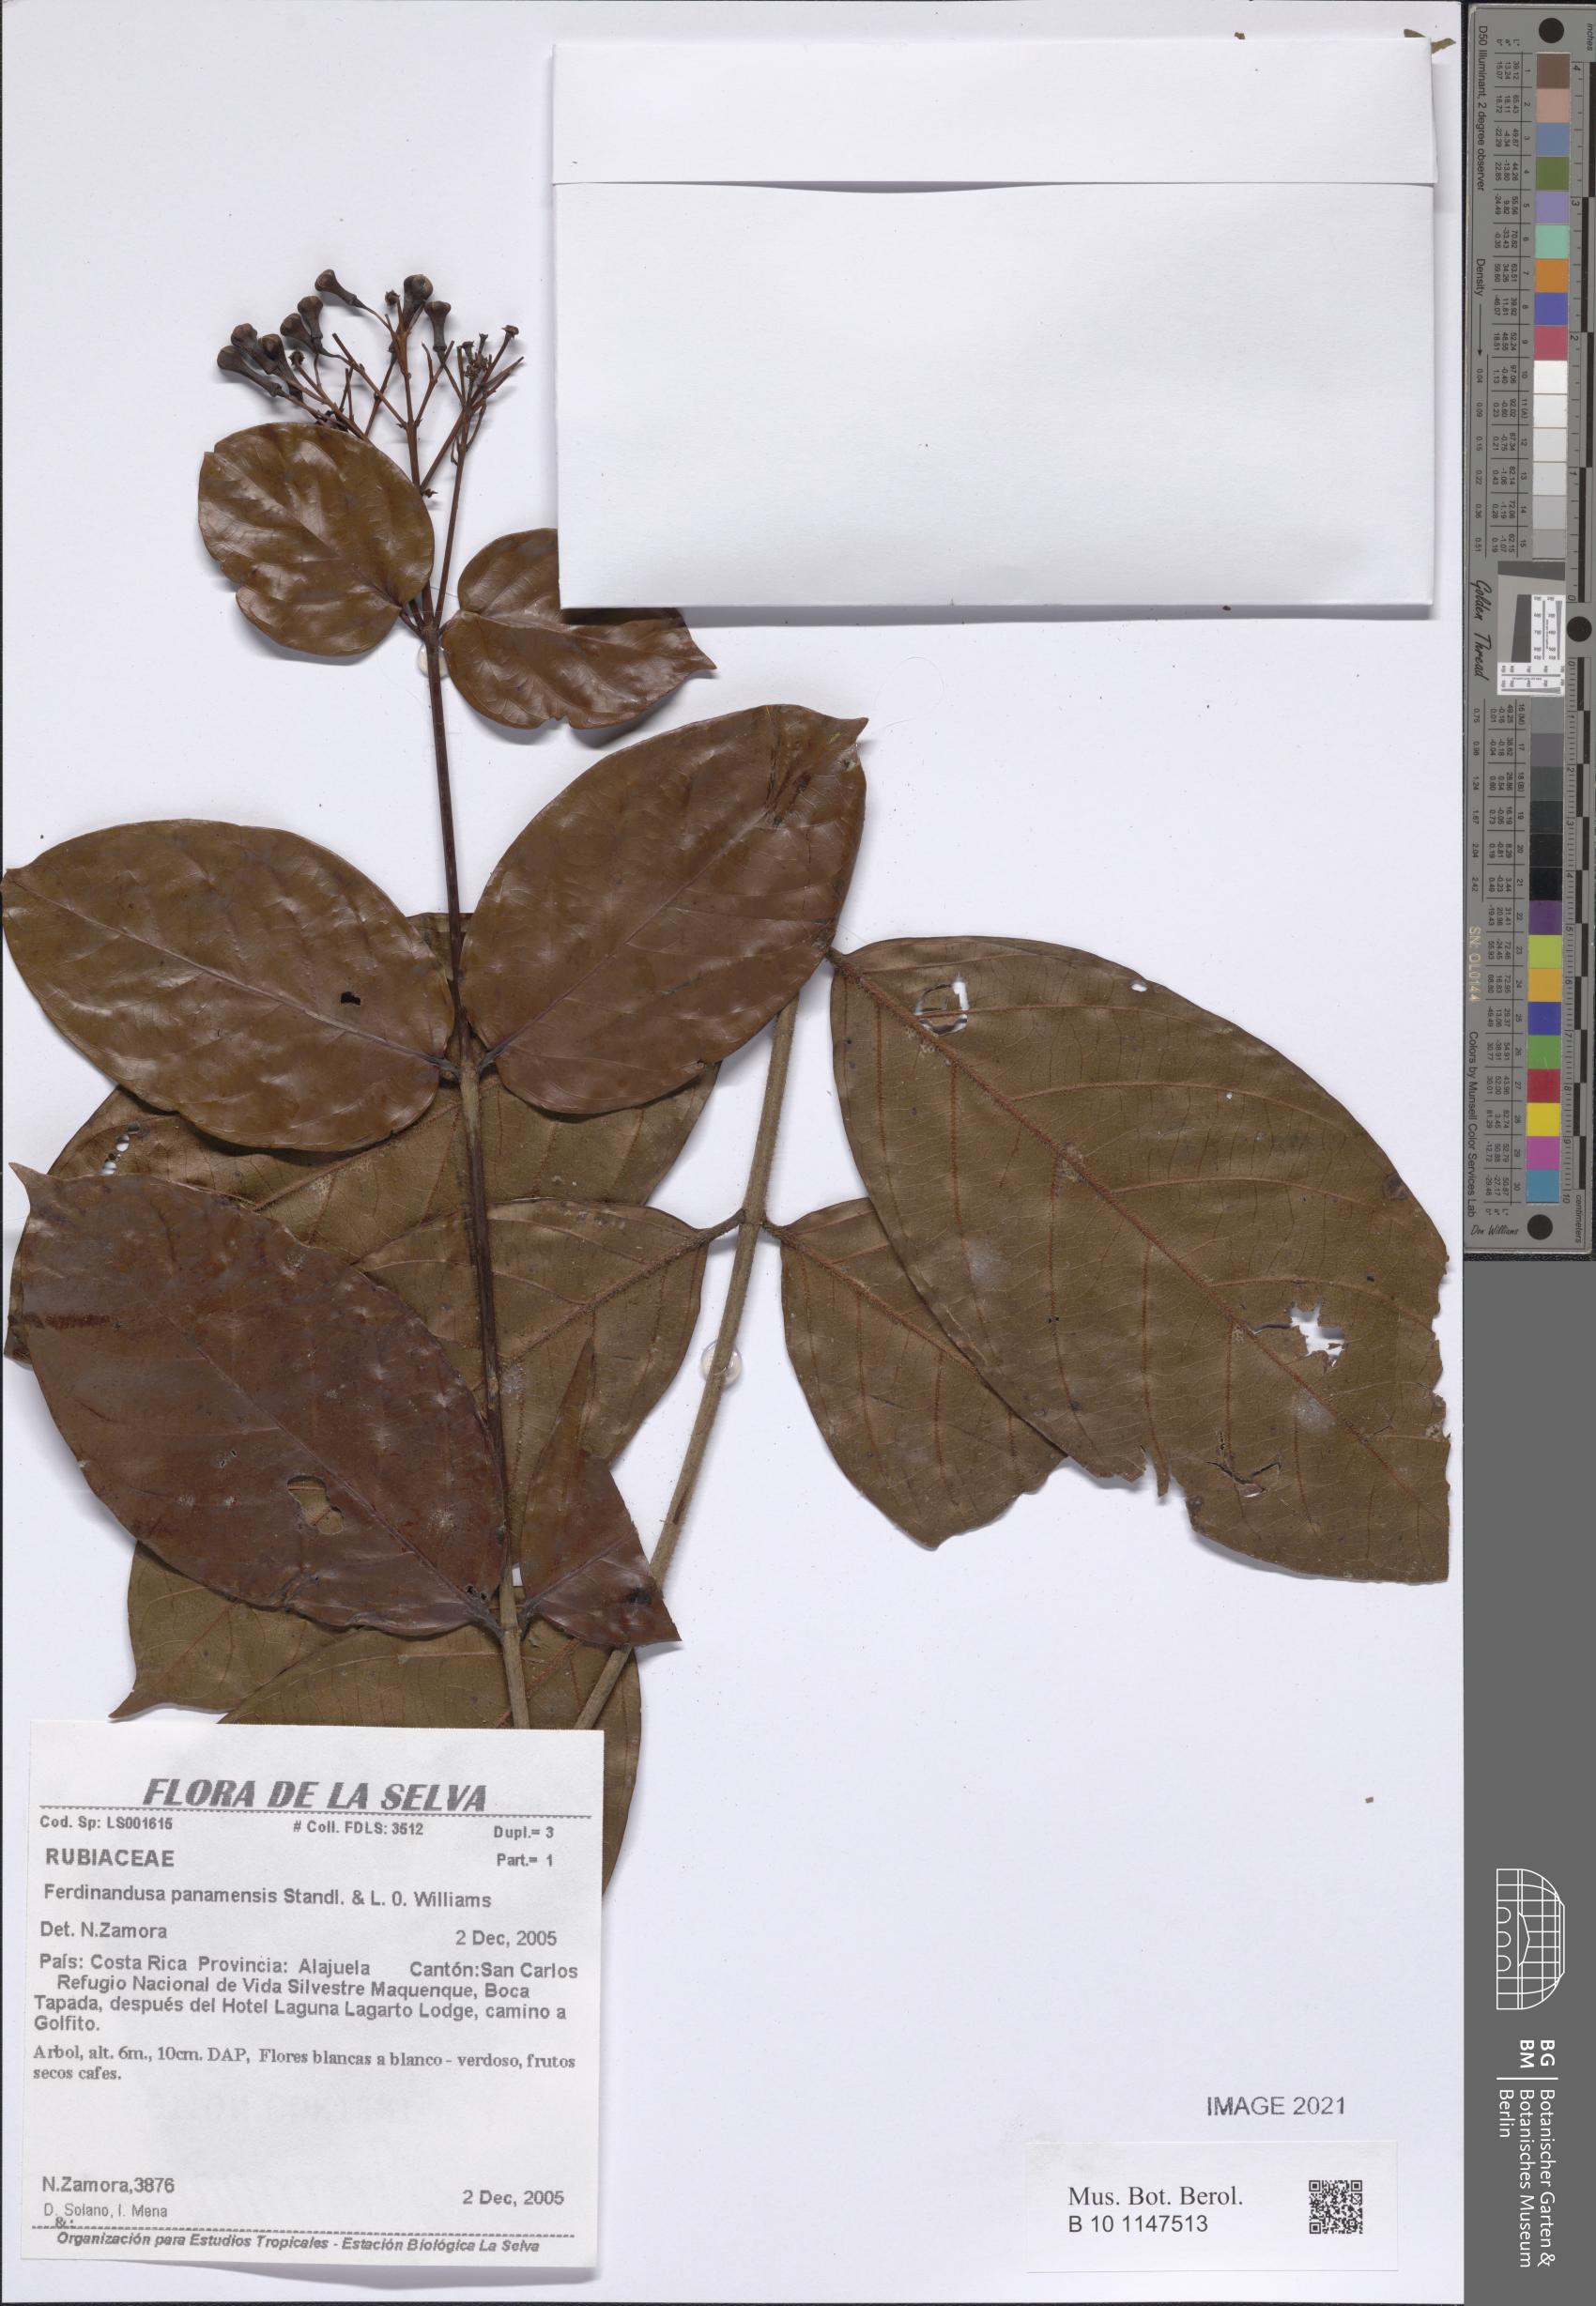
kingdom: Plantae
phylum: Tracheophyta
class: Magnoliopsida
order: Gentianales
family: Rubiaceae
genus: Ferdinandusa
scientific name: Ferdinandusa panamensis
